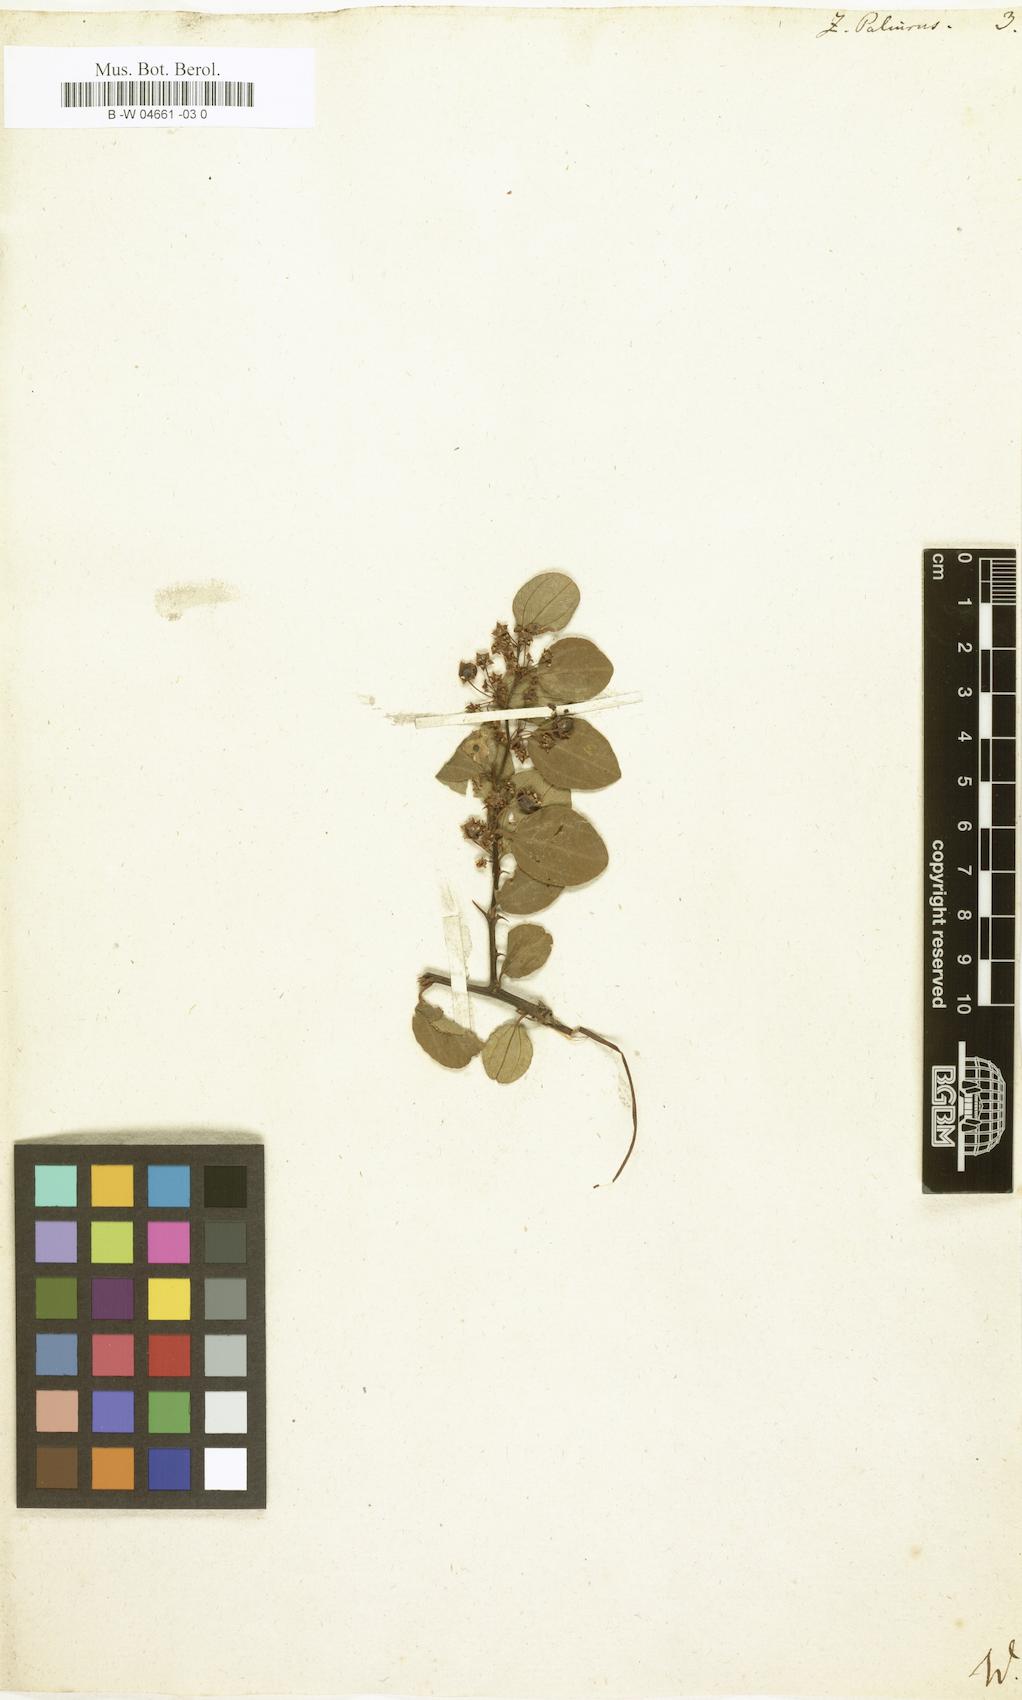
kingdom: Plantae
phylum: Tracheophyta
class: Magnoliopsida
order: Rosales
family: Rhamnaceae
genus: Paliurus
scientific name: Paliurus spina-christi
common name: Jeruselem thorn
